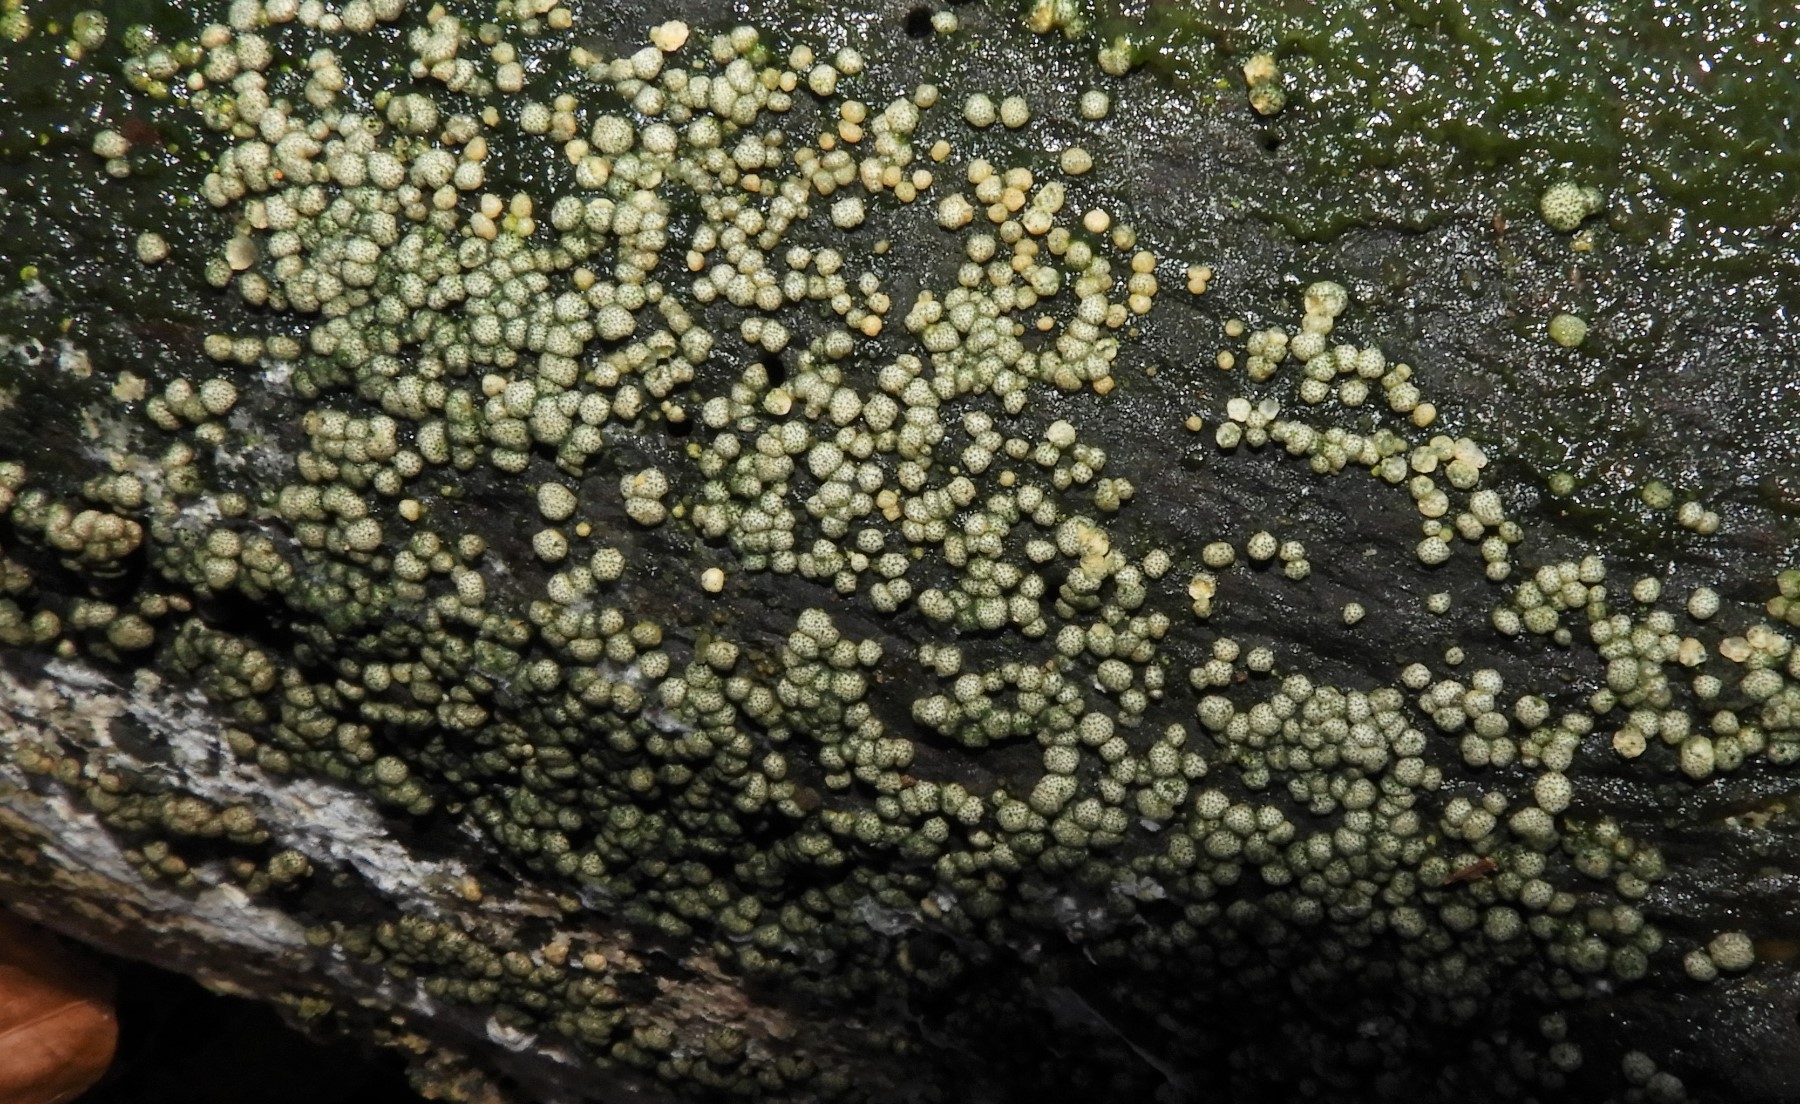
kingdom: Fungi
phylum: Ascomycota
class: Sordariomycetes
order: Hypocreales
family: Hypocreaceae
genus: Trichoderma
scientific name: Trichoderma strictipile
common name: grønprikket kødkerne
